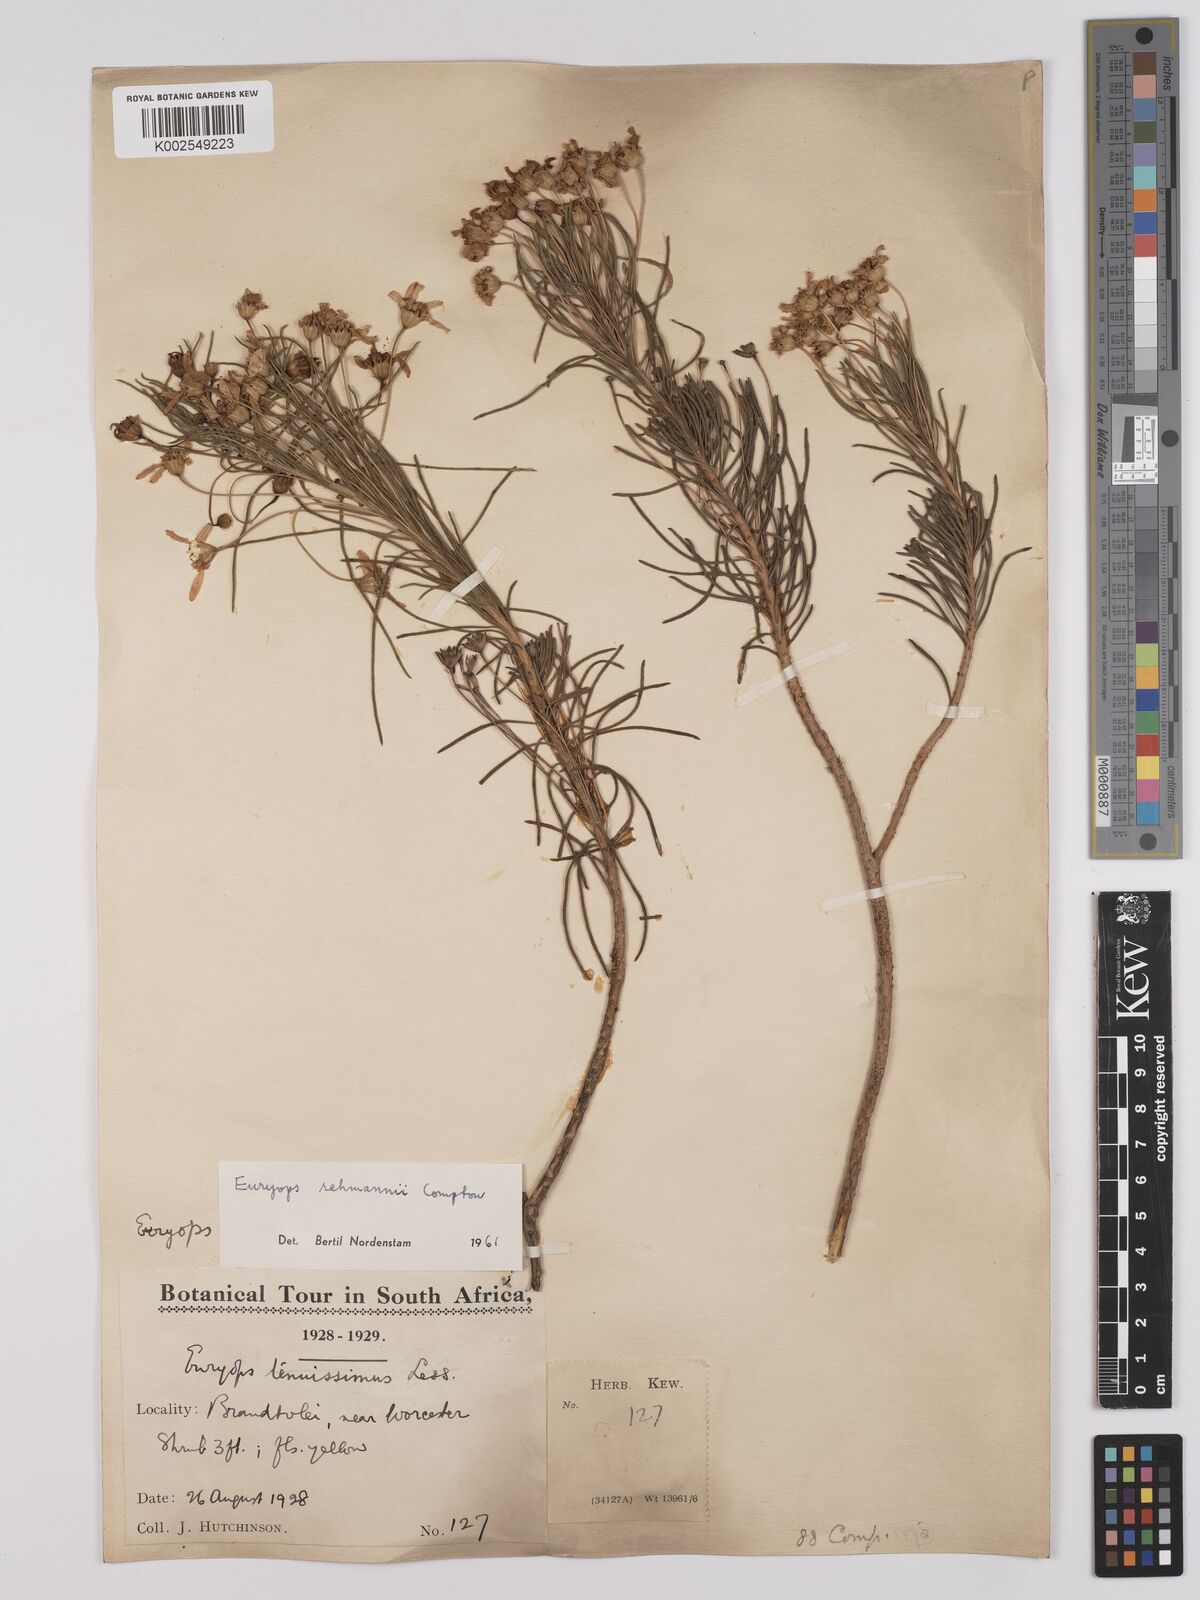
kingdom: Plantae
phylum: Tracheophyta
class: Magnoliopsida
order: Asterales
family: Asteraceae
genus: Euryops
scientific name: Euryops rehmannii
